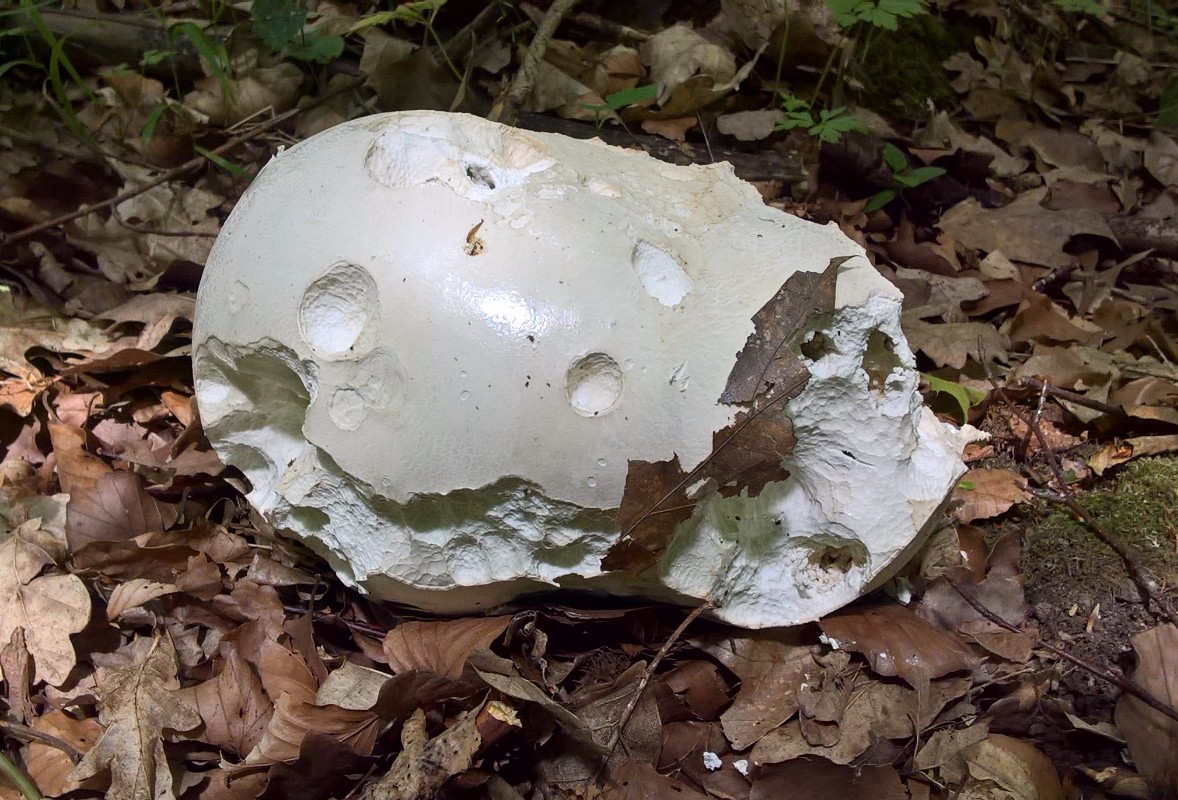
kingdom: Fungi
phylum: Basidiomycota
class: Agaricomycetes
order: Agaricales
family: Lycoperdaceae
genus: Calvatia
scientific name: Calvatia gigantea
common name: kæmpestøvbold
